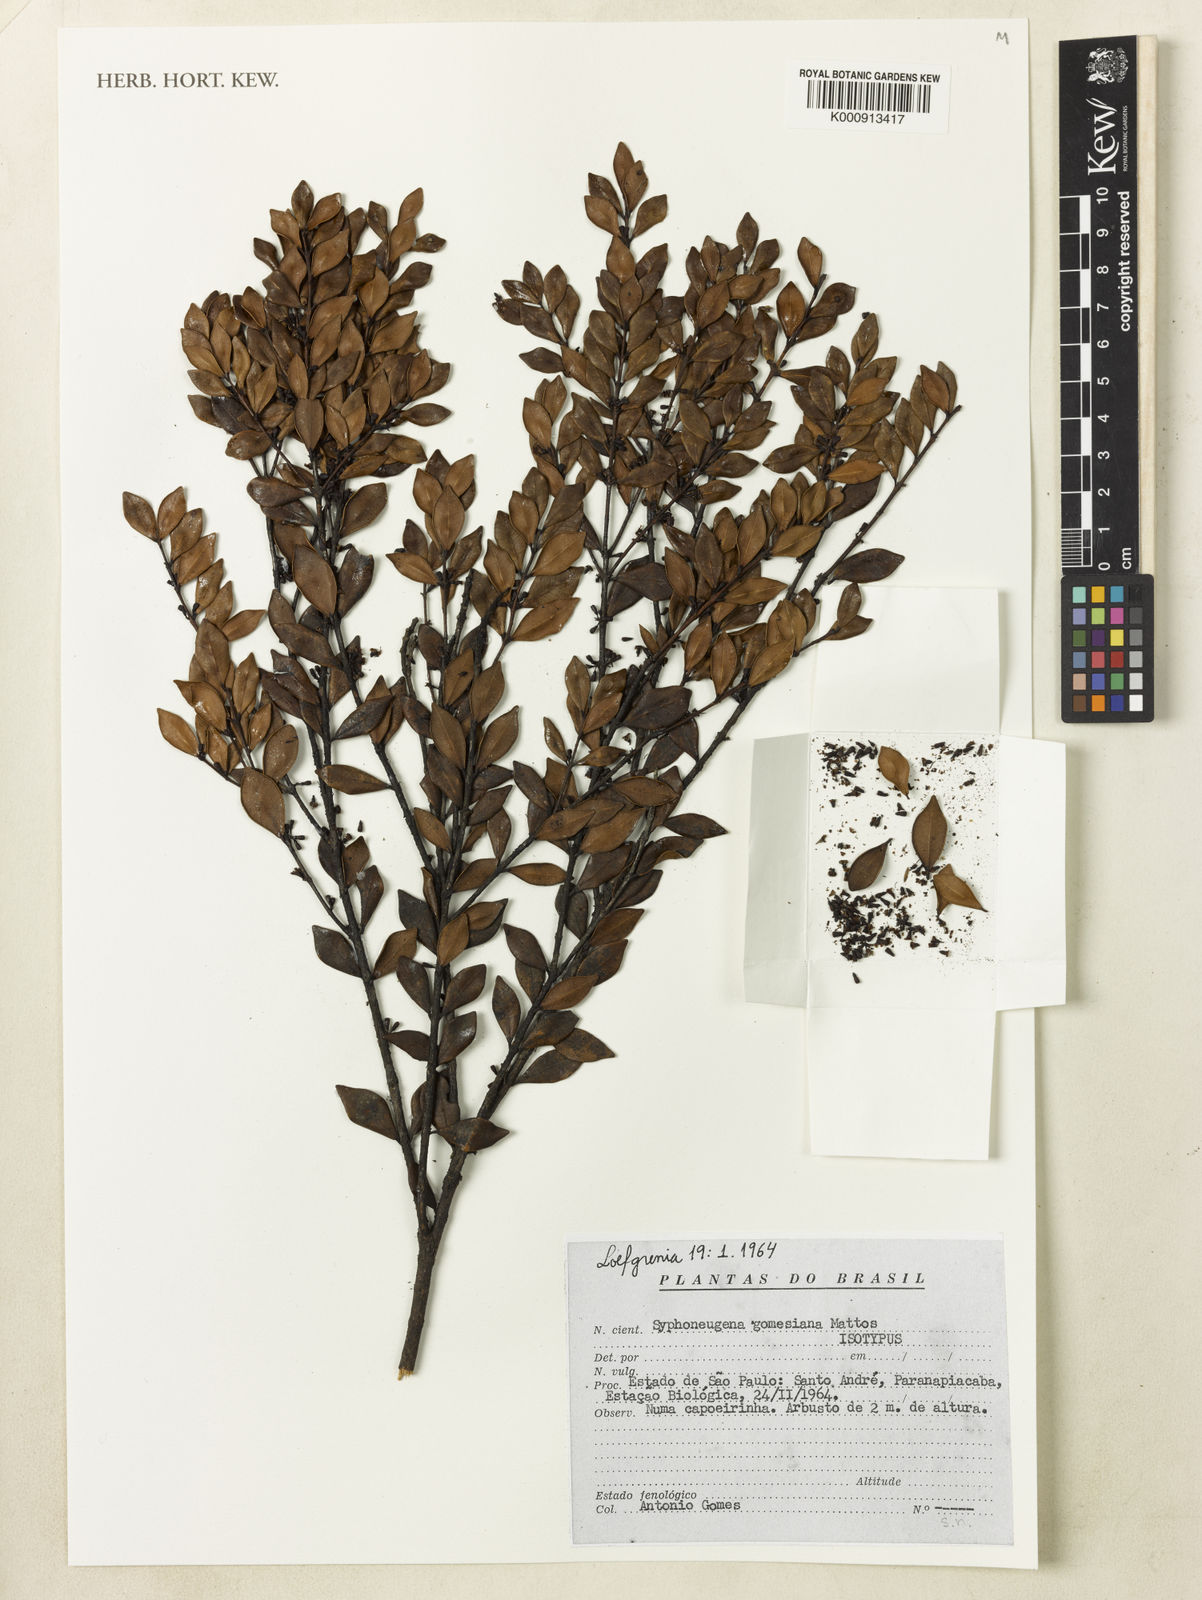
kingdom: Plantae
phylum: Tracheophyta
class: Magnoliopsida
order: Myrtales
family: Myrtaceae
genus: Siphoneugena
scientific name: Siphoneugena reitzii
